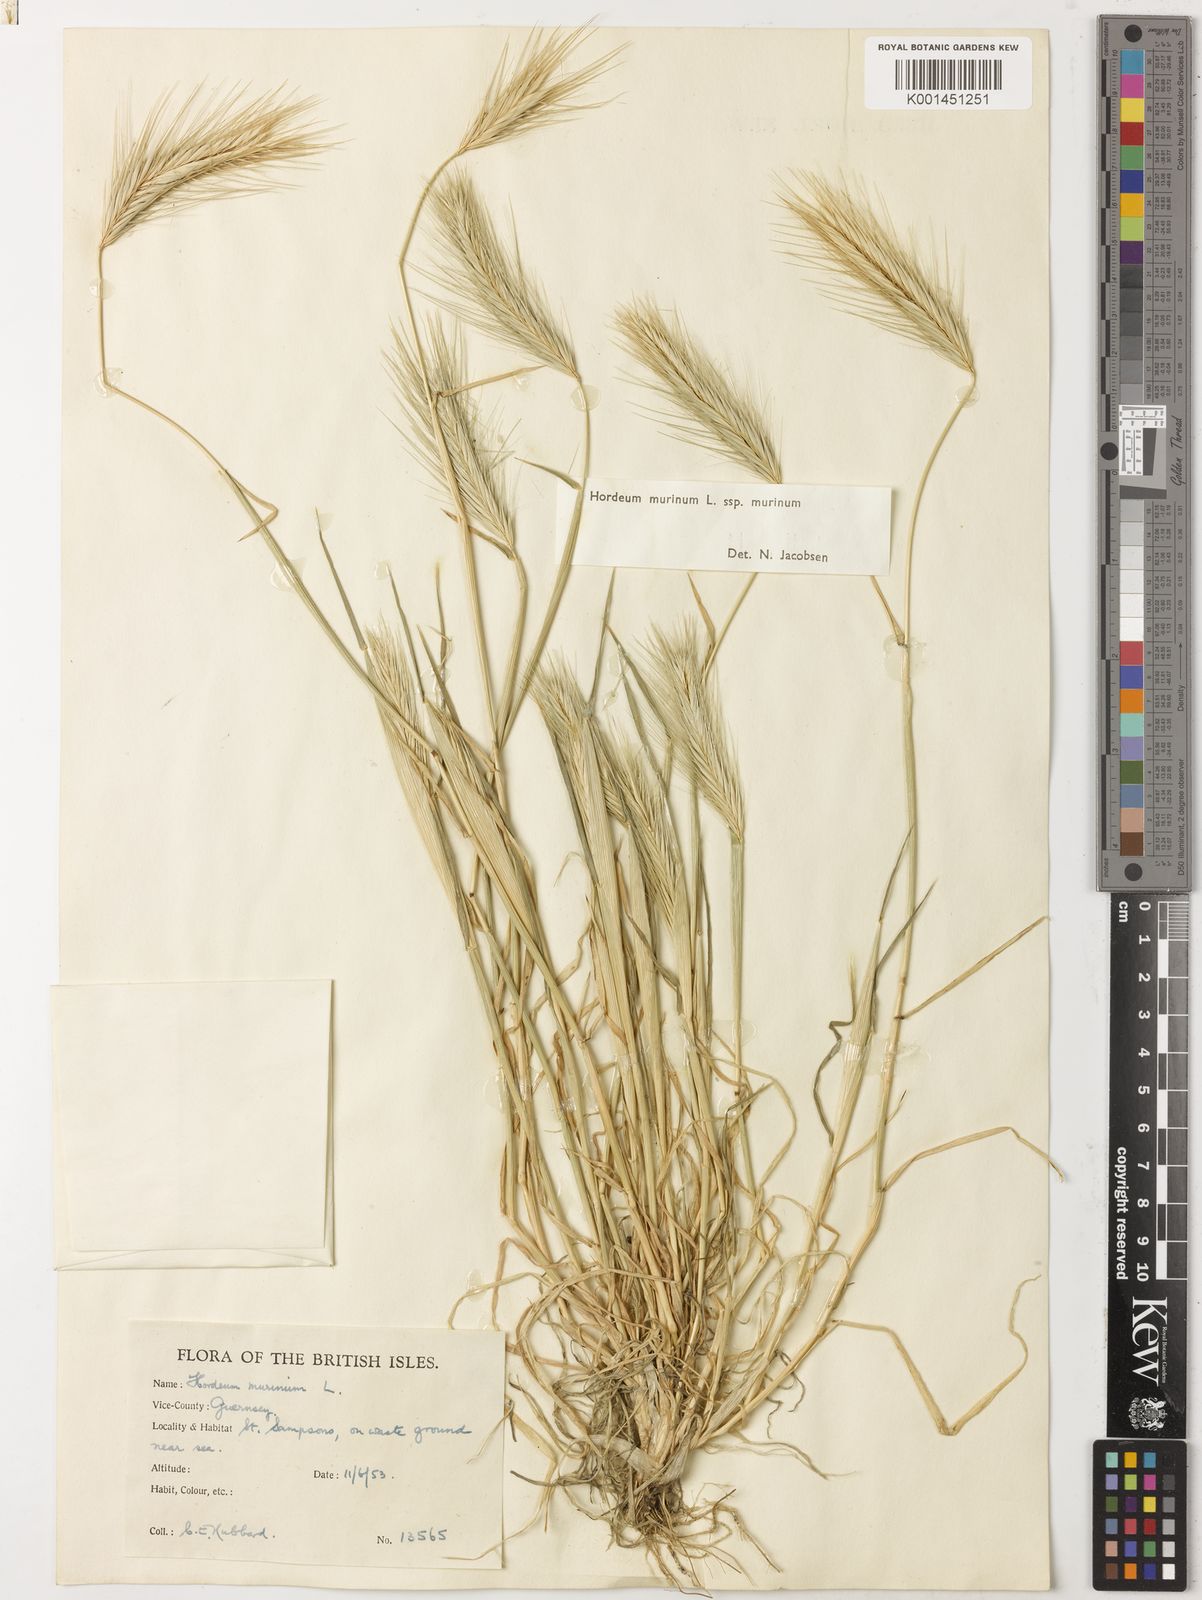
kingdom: Plantae
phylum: Tracheophyta
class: Liliopsida
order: Poales
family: Poaceae
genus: Hordeum
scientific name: Hordeum murinum
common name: Wall barley
